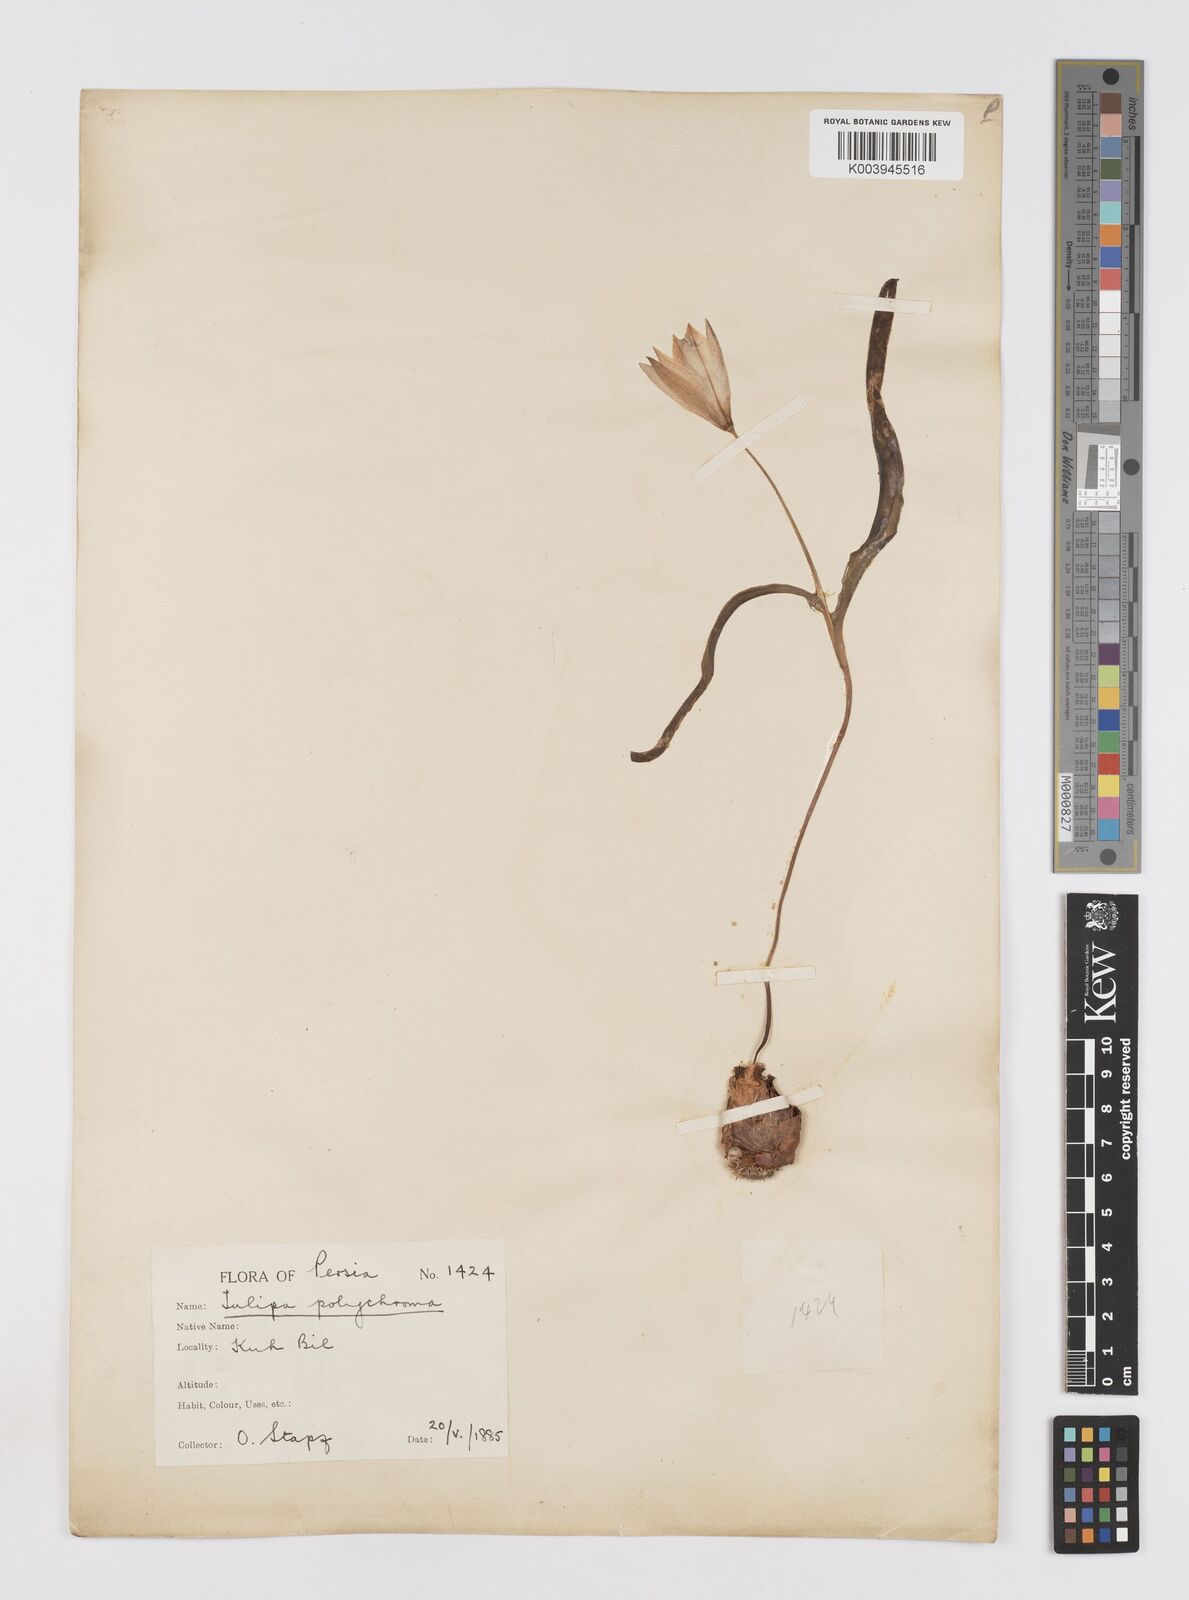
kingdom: Plantae
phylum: Tracheophyta
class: Liliopsida
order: Liliales
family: Liliaceae
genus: Tulipa
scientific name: Tulipa biflora
